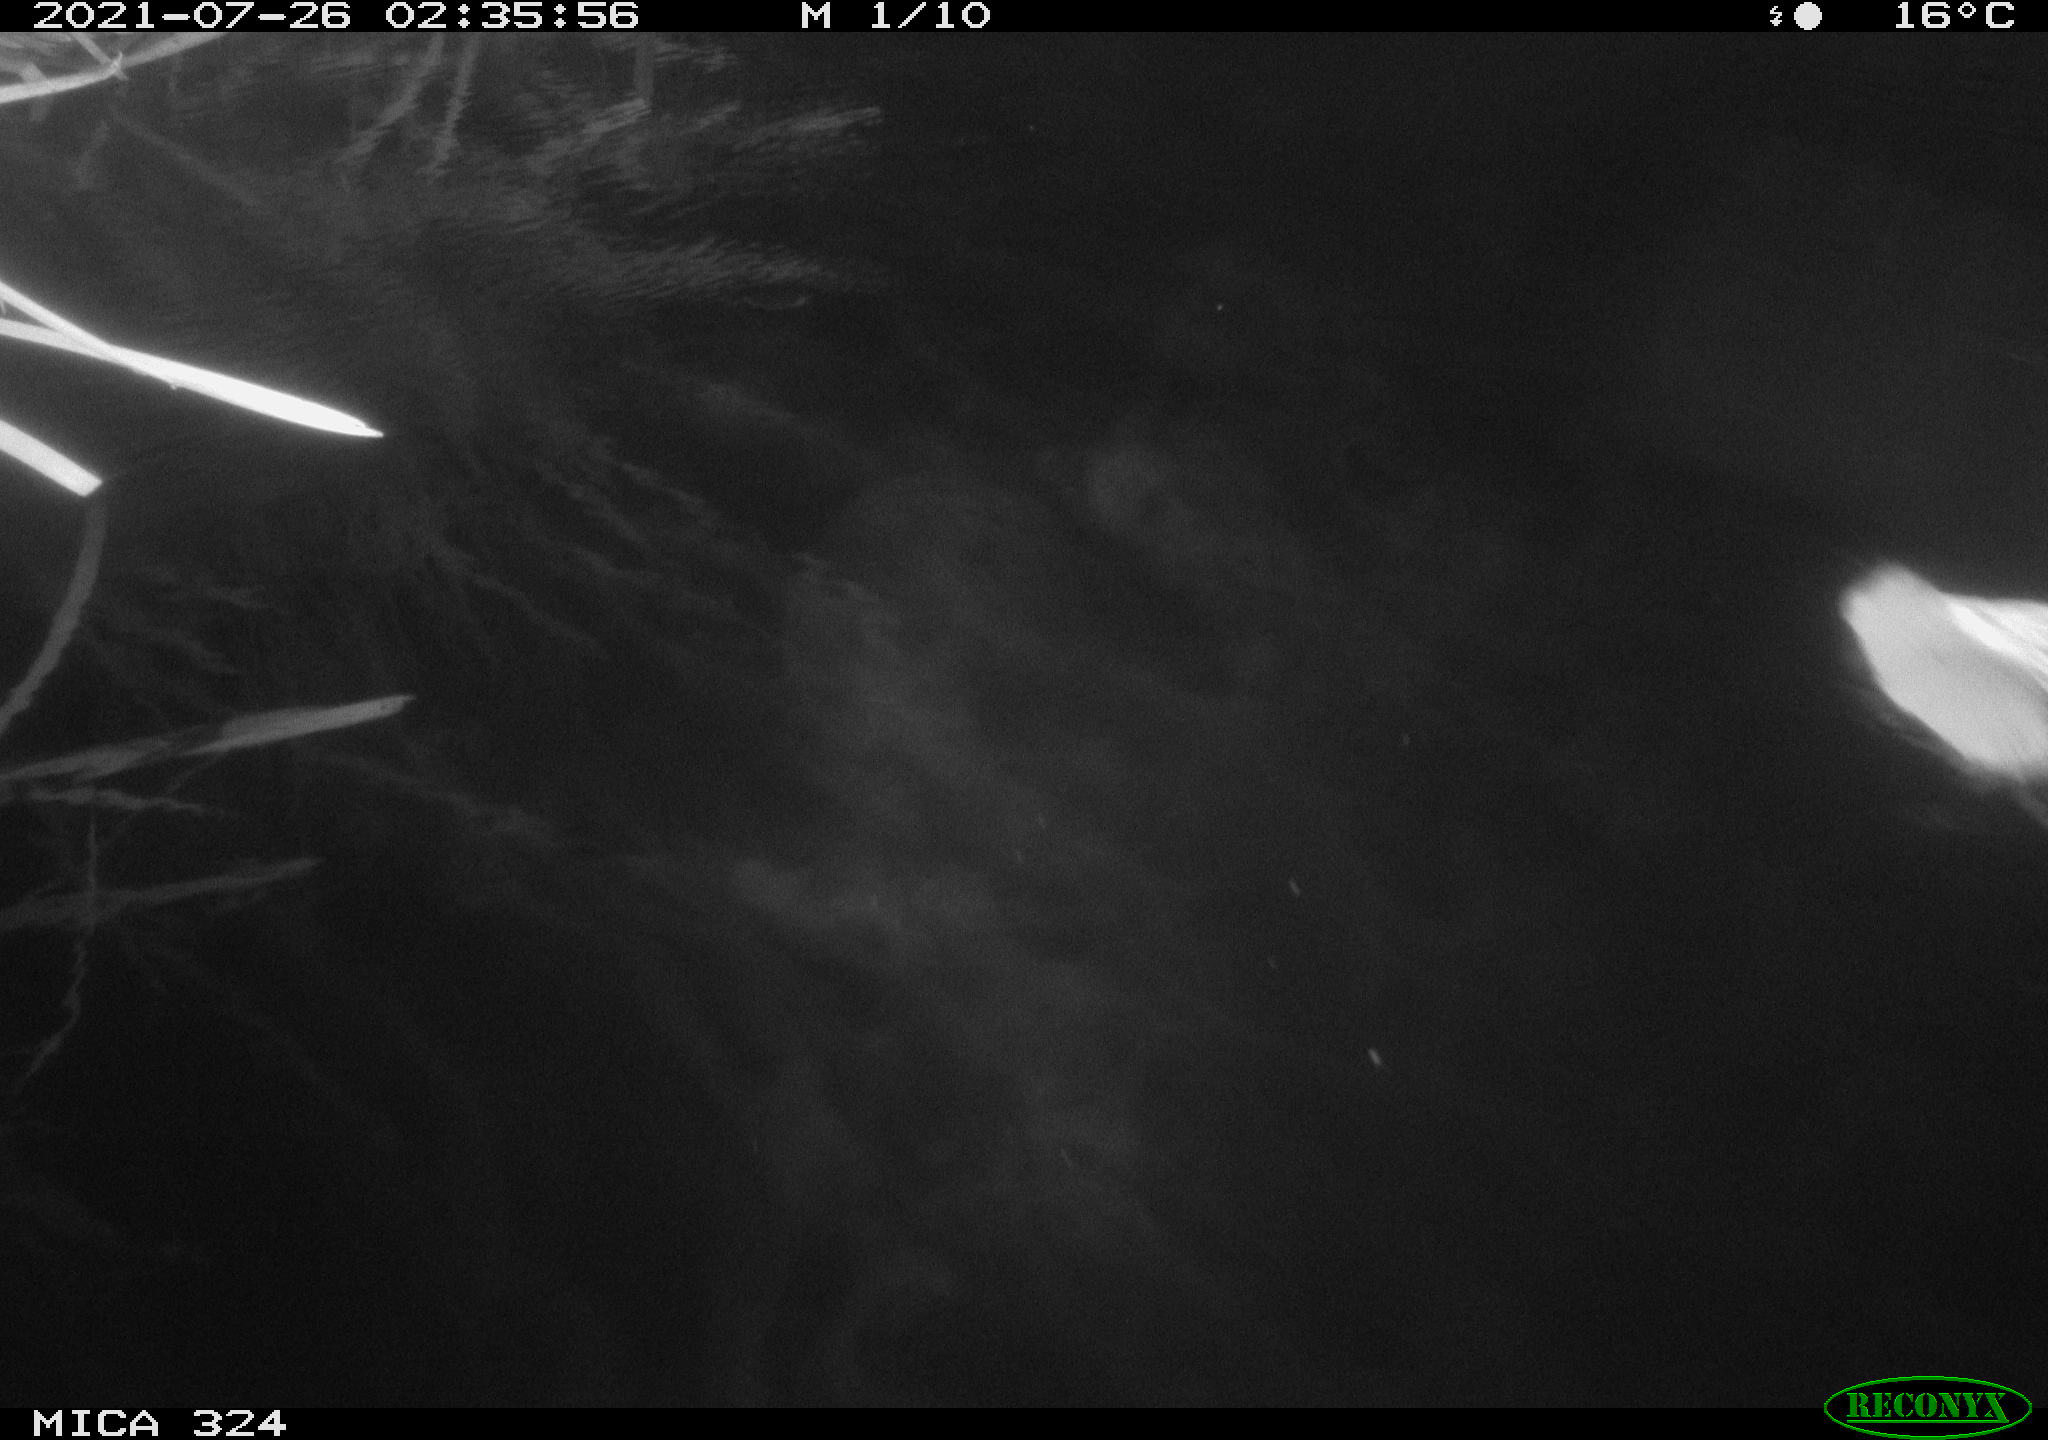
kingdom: Animalia
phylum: Chordata
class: Mammalia
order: Rodentia
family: Cricetidae
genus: Ondatra
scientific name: Ondatra zibethicus
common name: Muskrat
